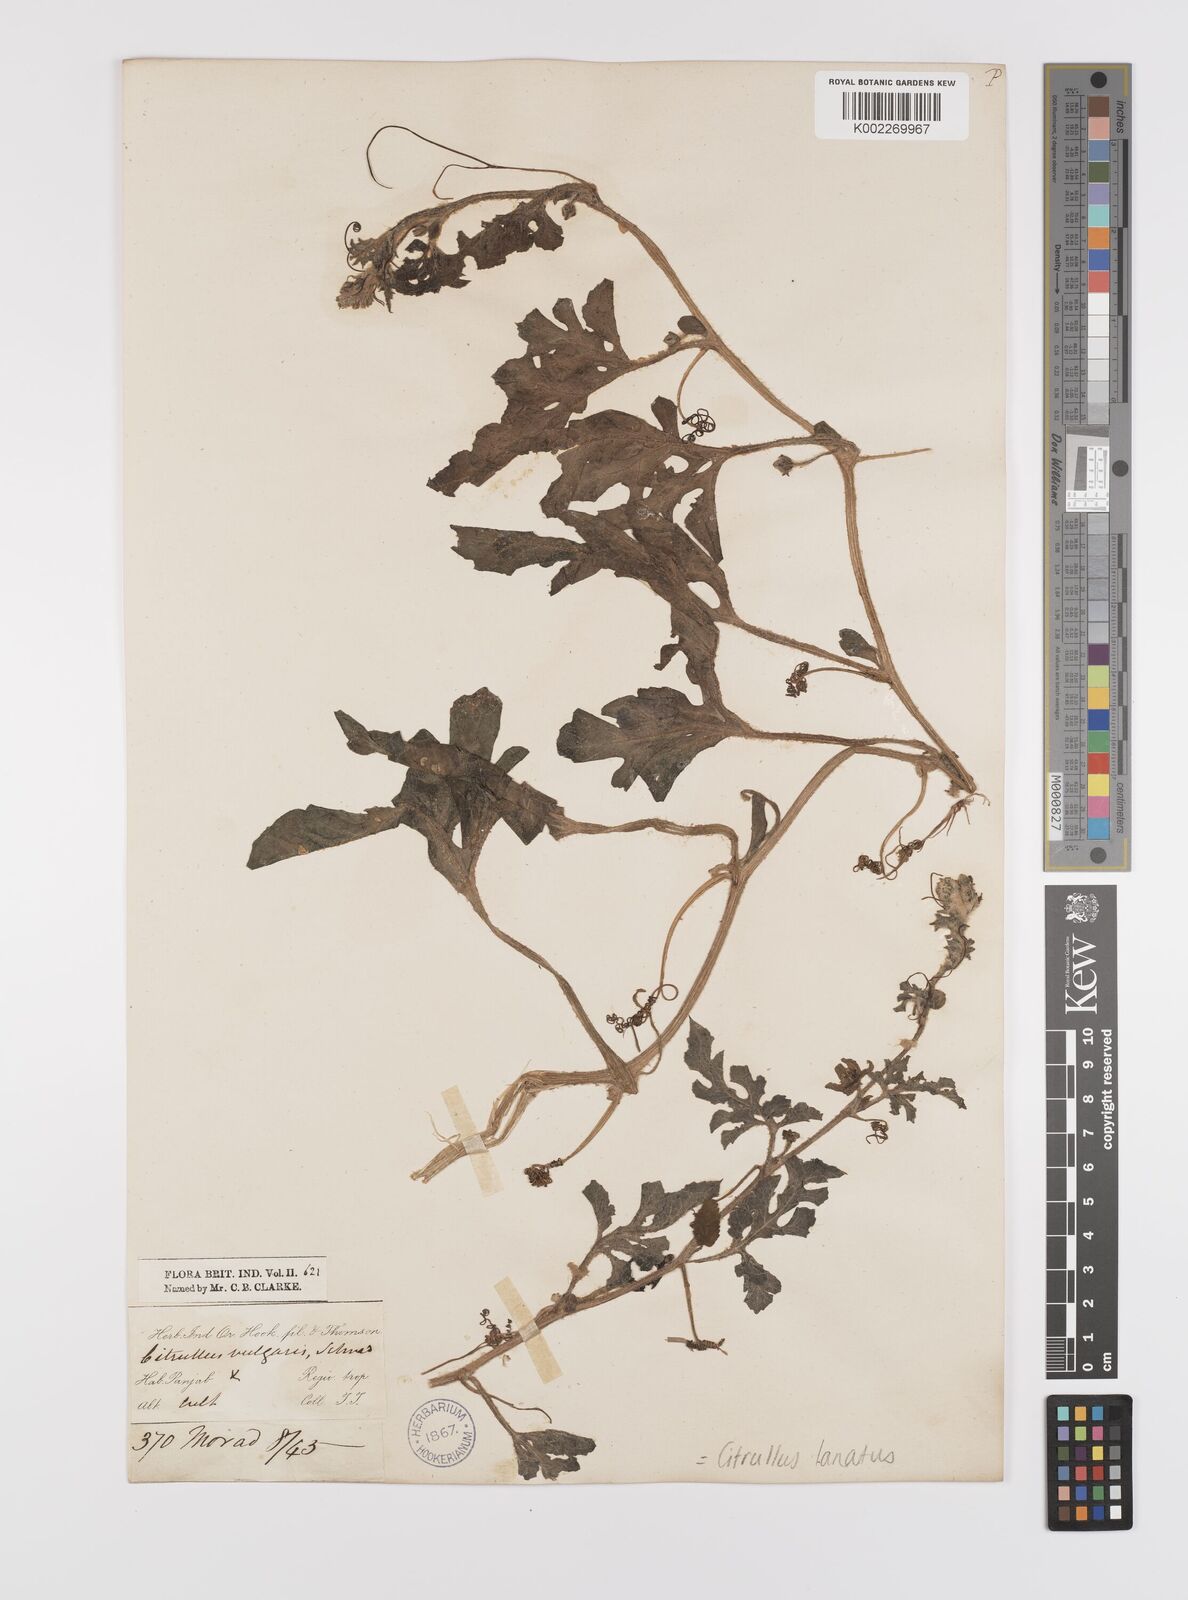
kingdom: Plantae
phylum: Tracheophyta
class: Magnoliopsida
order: Cucurbitales
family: Cucurbitaceae
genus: Citrullus
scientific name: Citrullus lanatus
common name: Watermelon
